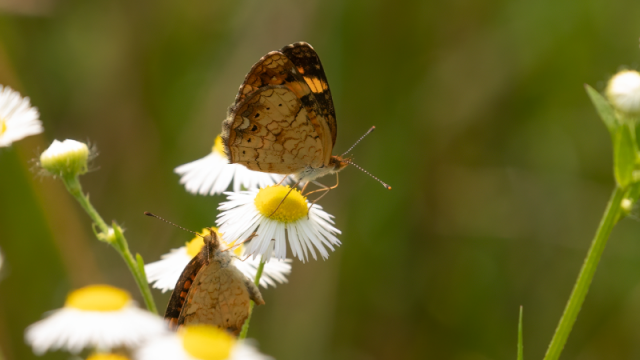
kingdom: Animalia
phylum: Arthropoda
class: Insecta
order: Lepidoptera
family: Nymphalidae
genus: Phyciodes
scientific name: Phyciodes tharos
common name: Northern Crescent
